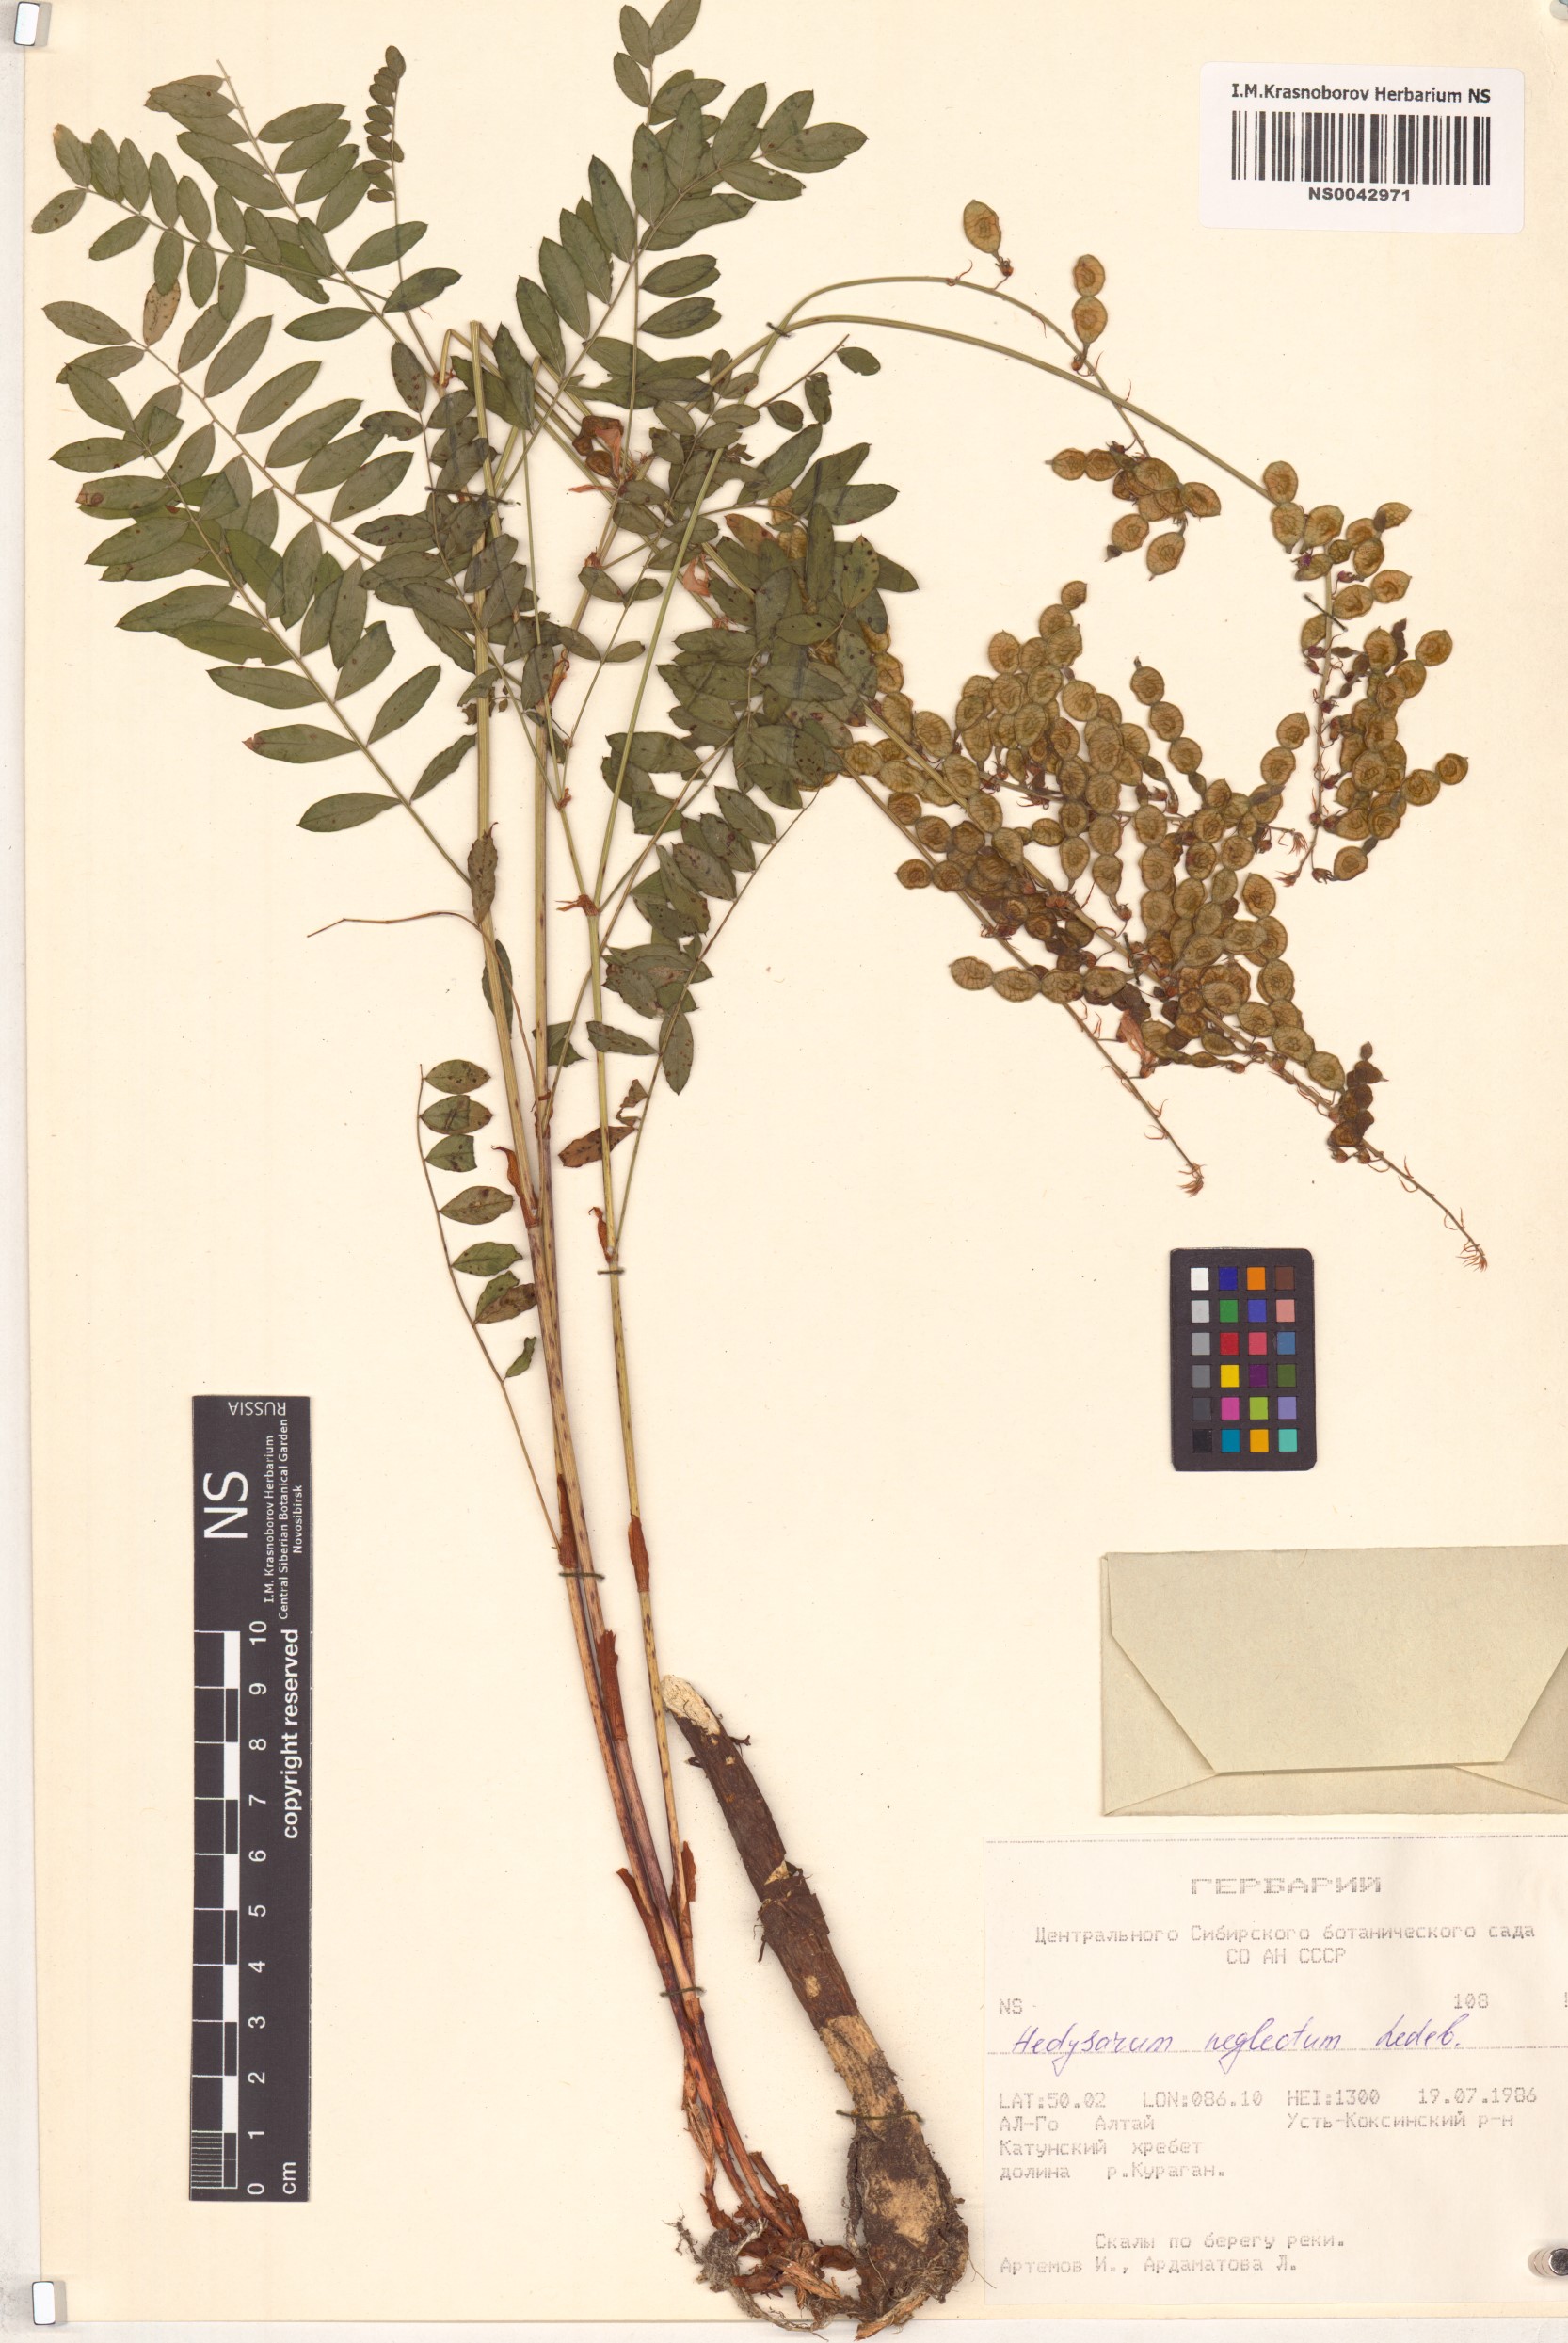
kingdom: Plantae
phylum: Tracheophyta
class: Magnoliopsida
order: Fabales
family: Fabaceae
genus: Hedysarum
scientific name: Hedysarum neglectum
